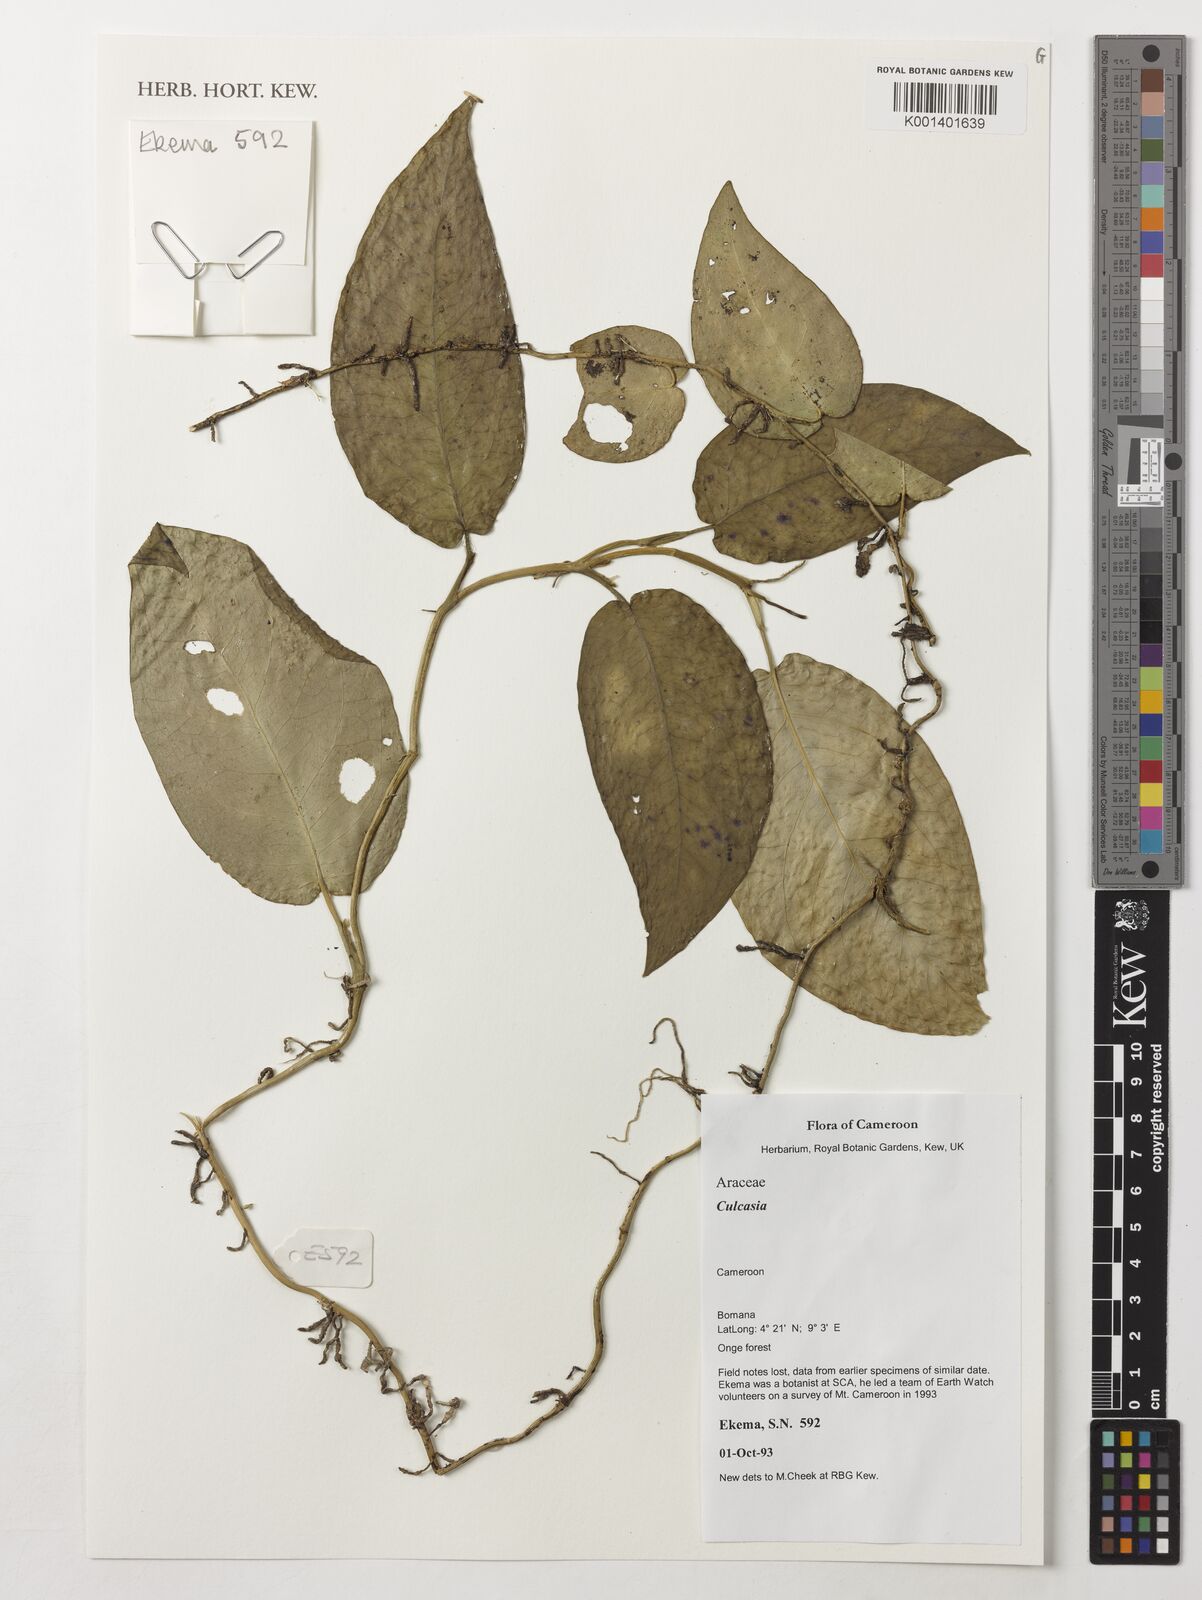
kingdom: Plantae
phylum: Tracheophyta
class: Liliopsida
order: Alismatales
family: Araceae
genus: Culcasia
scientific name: Culcasia
